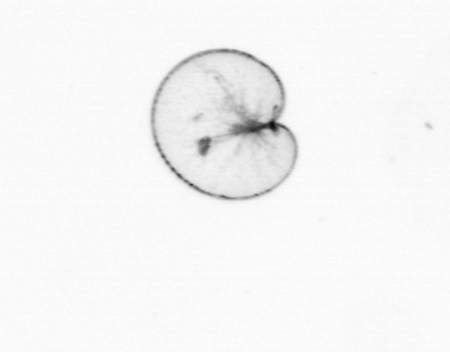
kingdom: Chromista
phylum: Myzozoa
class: Dinophyceae
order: Noctilucales
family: Noctilucaceae
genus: Noctiluca
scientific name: Noctiluca scintillans
